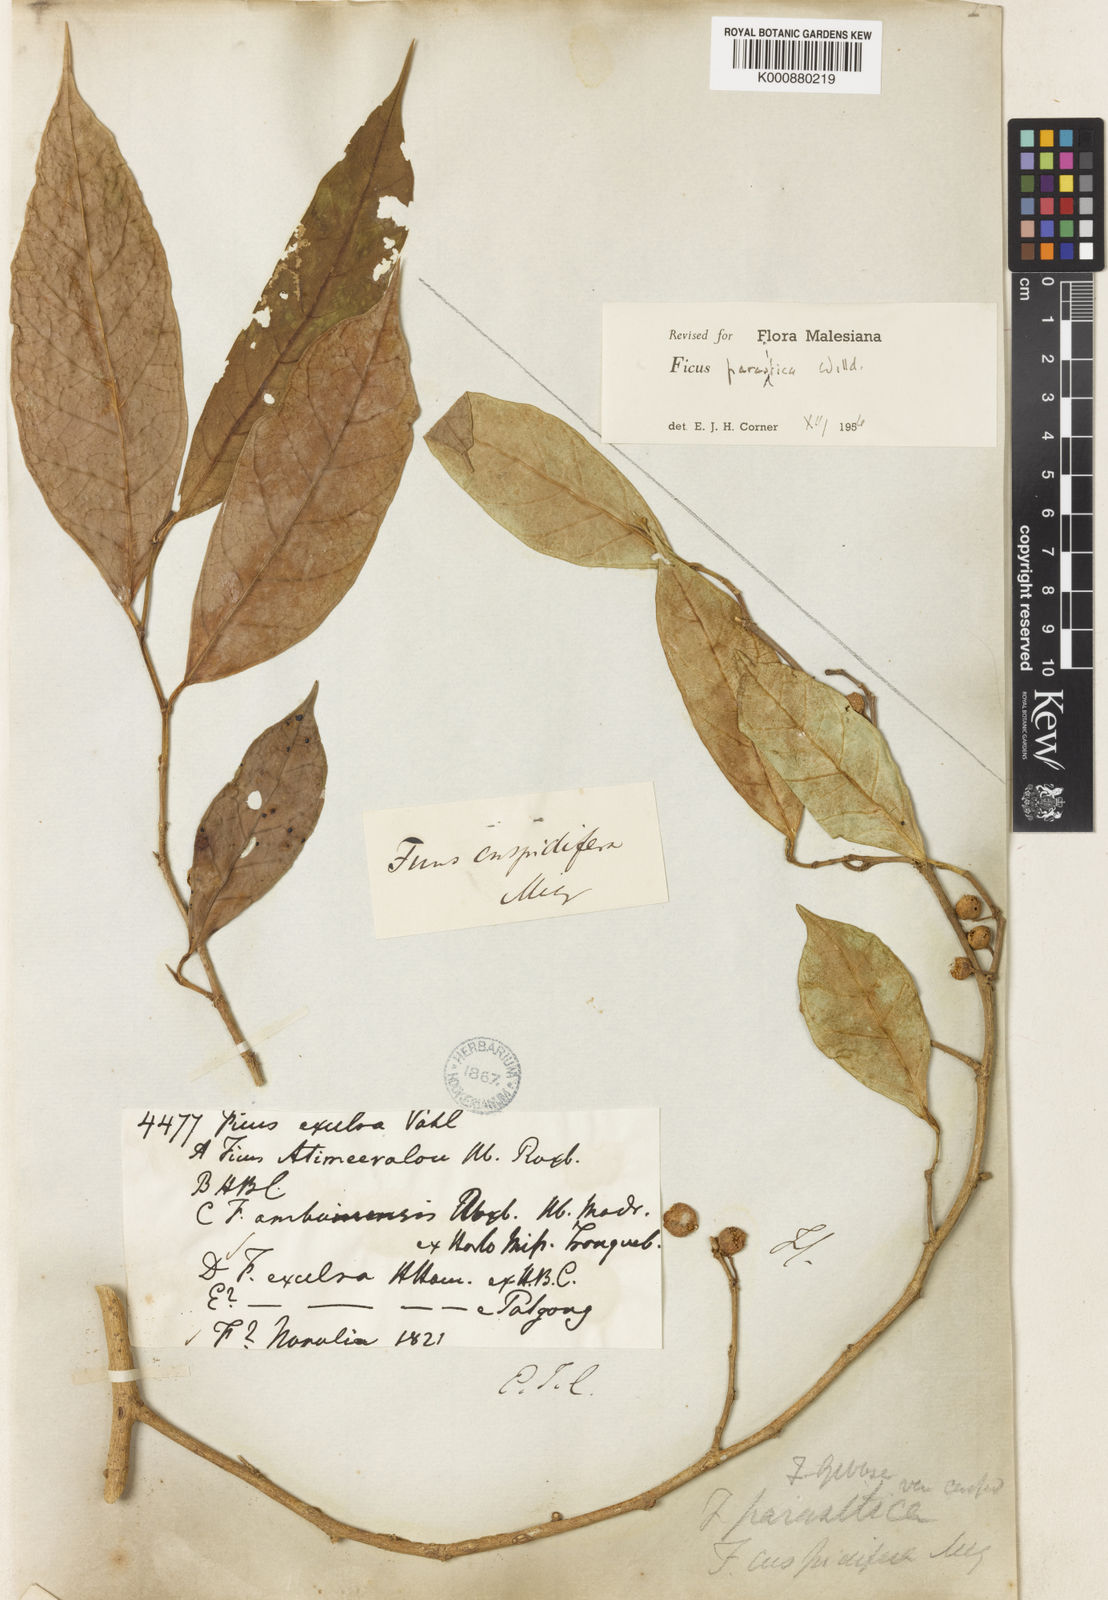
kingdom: Plantae
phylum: Tracheophyta
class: Magnoliopsida
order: Rosales
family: Moraceae
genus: Ficus
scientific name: Ficus tinctoria
